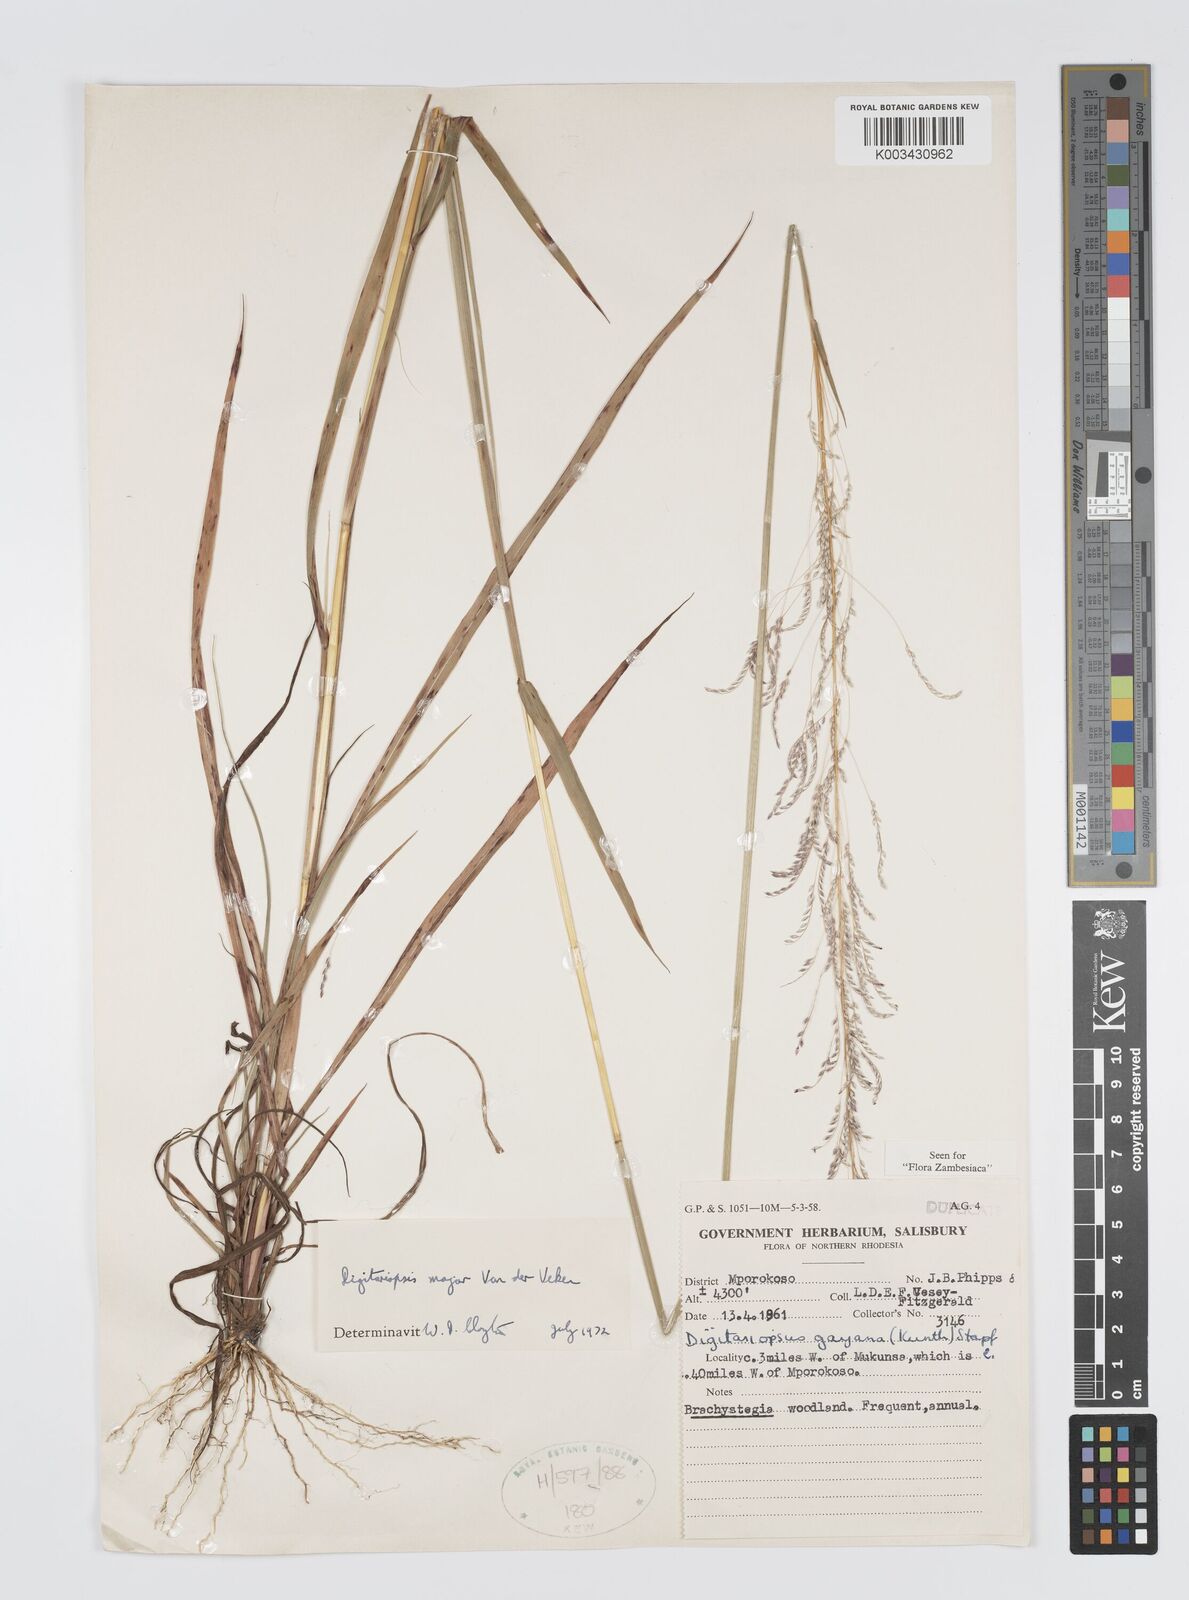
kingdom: Plantae
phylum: Tracheophyta
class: Liliopsida
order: Poales
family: Poaceae
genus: Digitaria
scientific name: Digitaria poggeana
